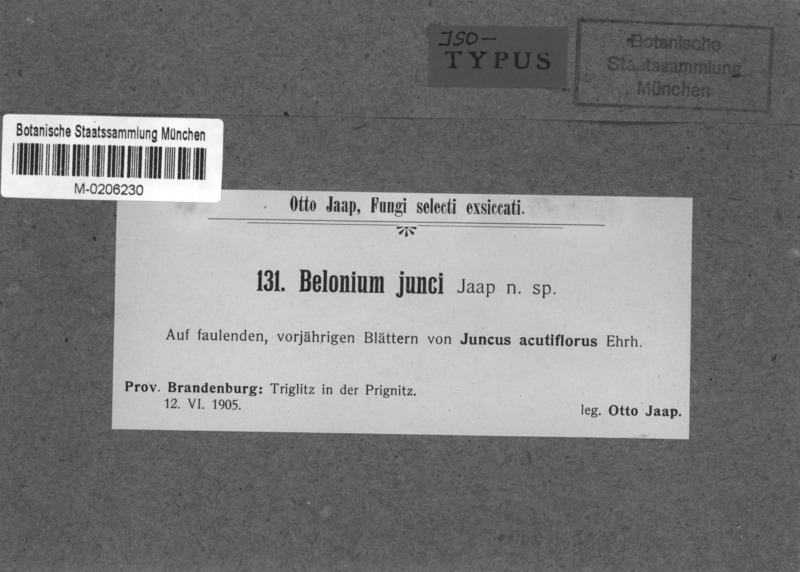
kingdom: Fungi
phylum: Ascomycota
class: Leotiomycetes
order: Helotiales
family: Ploettnerulaceae
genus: Belonium
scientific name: Belonium junci
